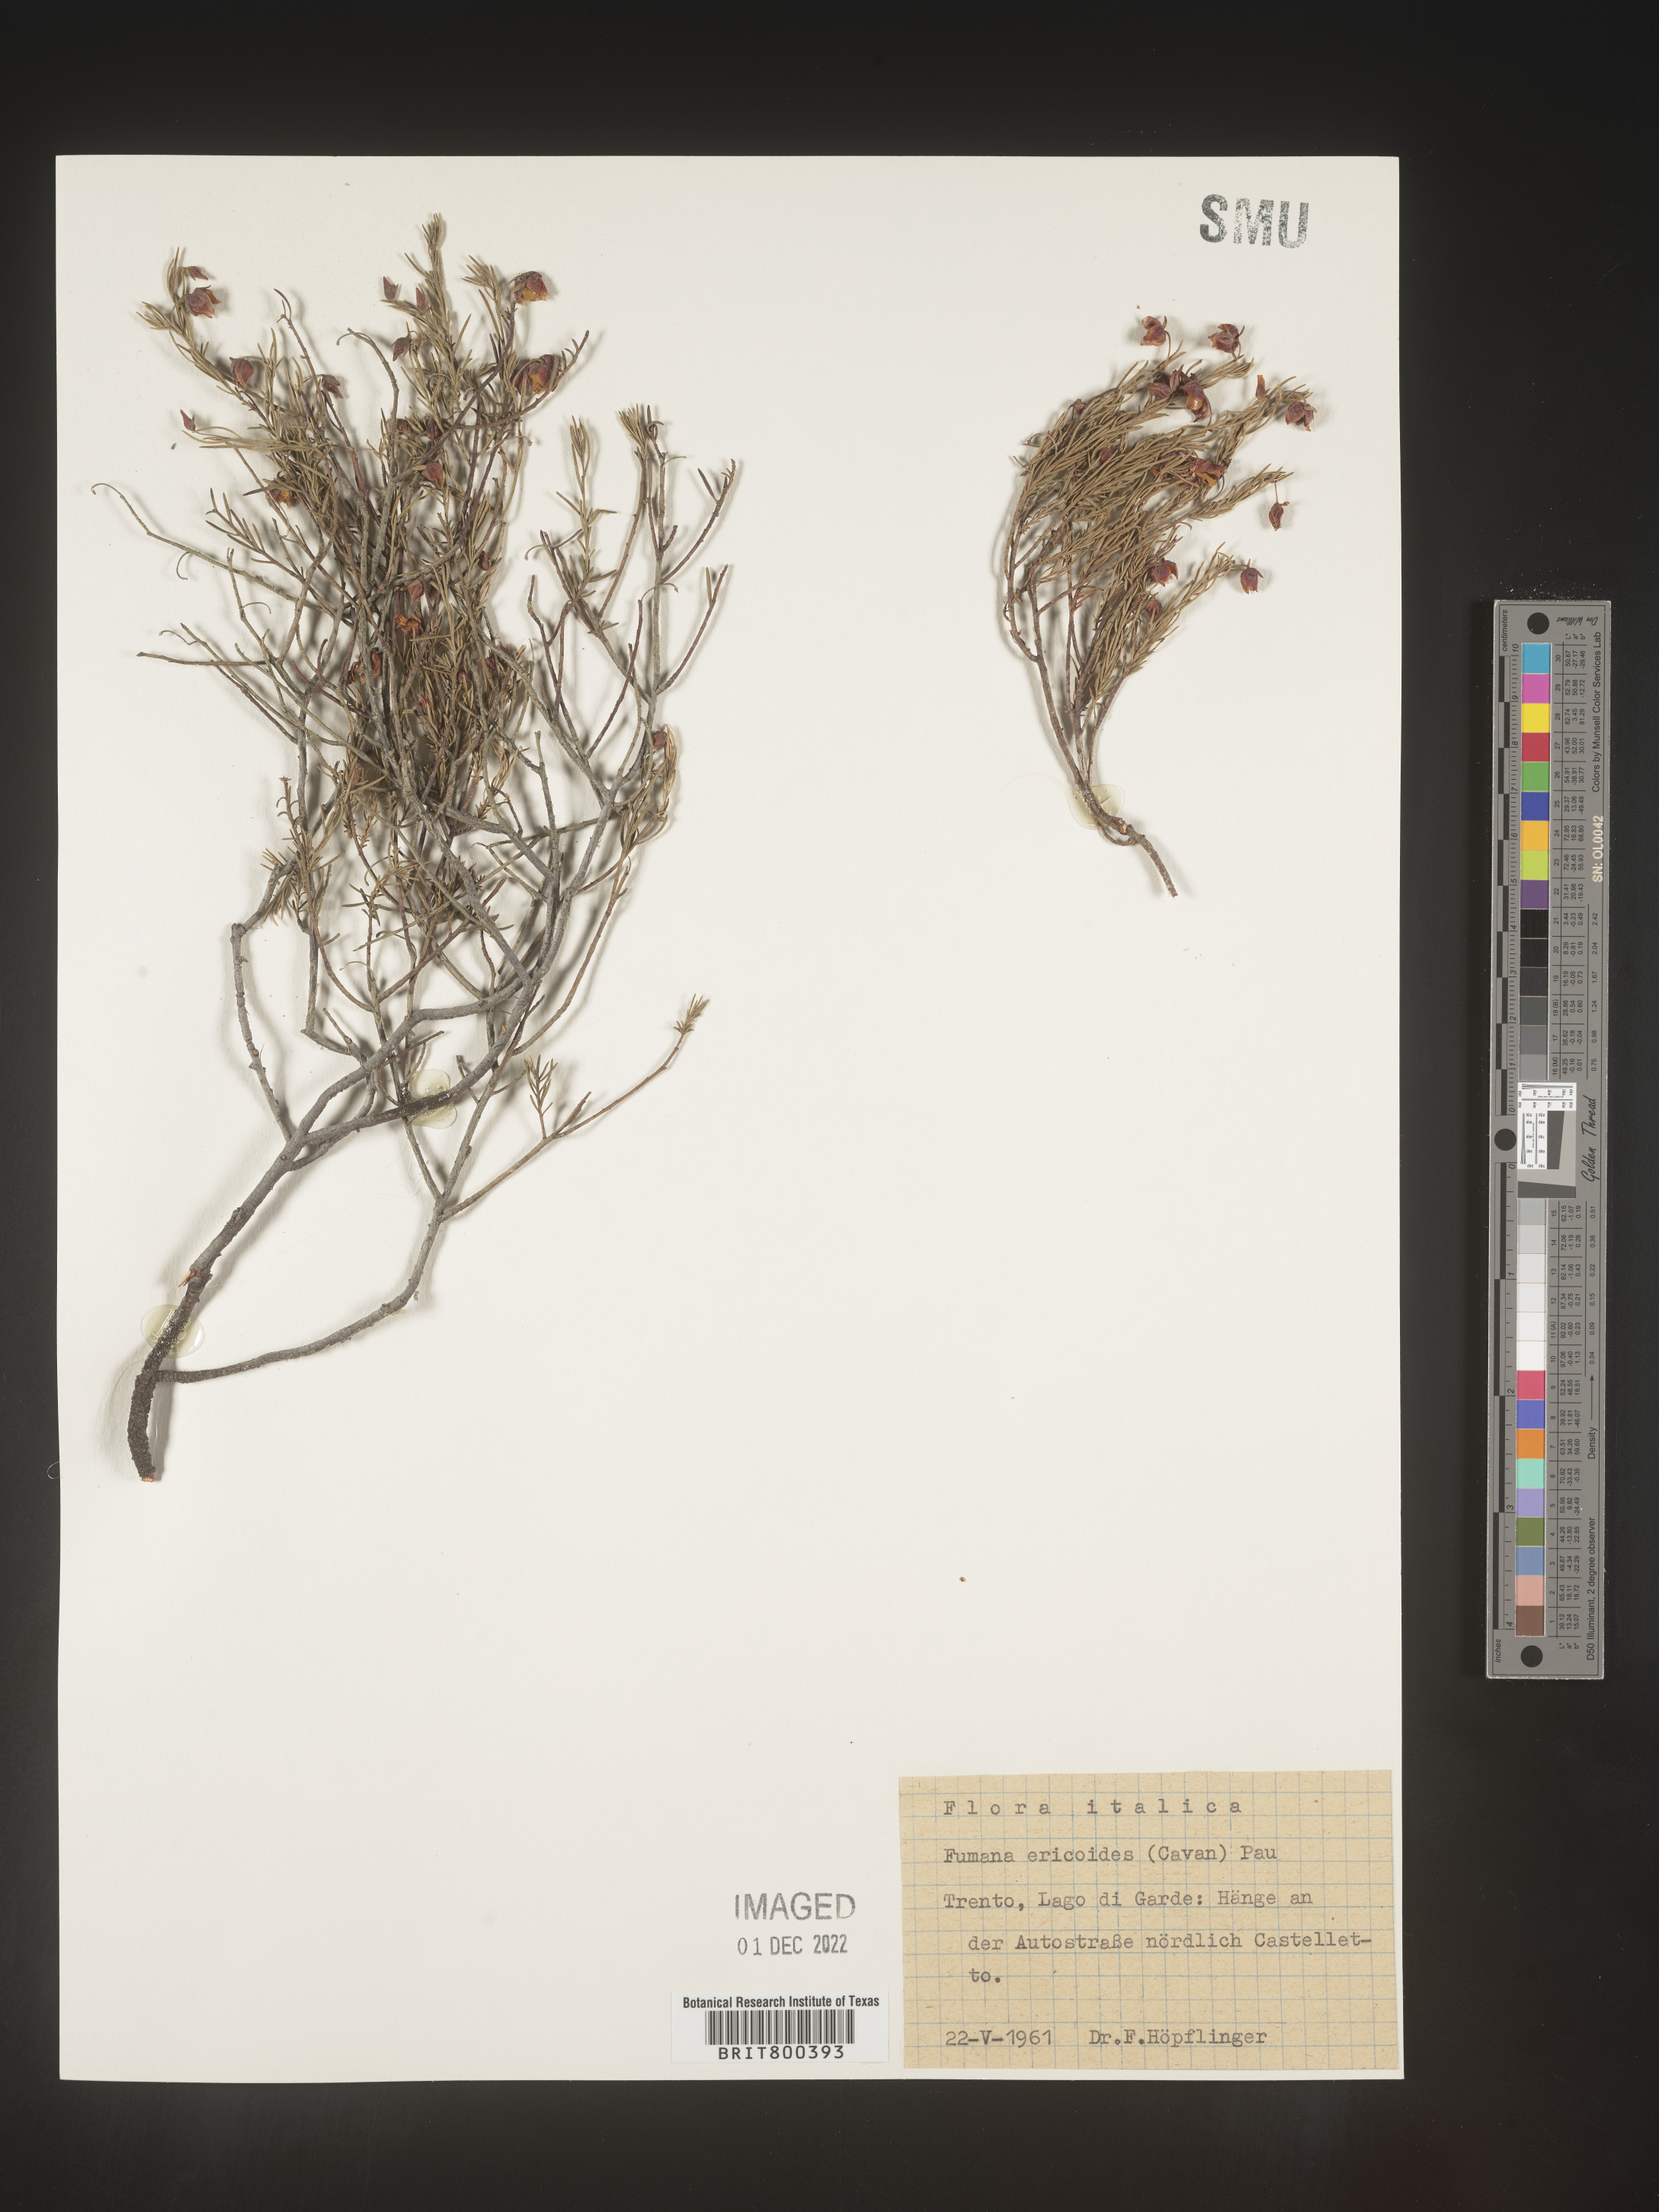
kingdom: Plantae
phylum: Tracheophyta
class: Magnoliopsida
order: Malvales
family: Cistaceae
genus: Fumana
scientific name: Fumana
